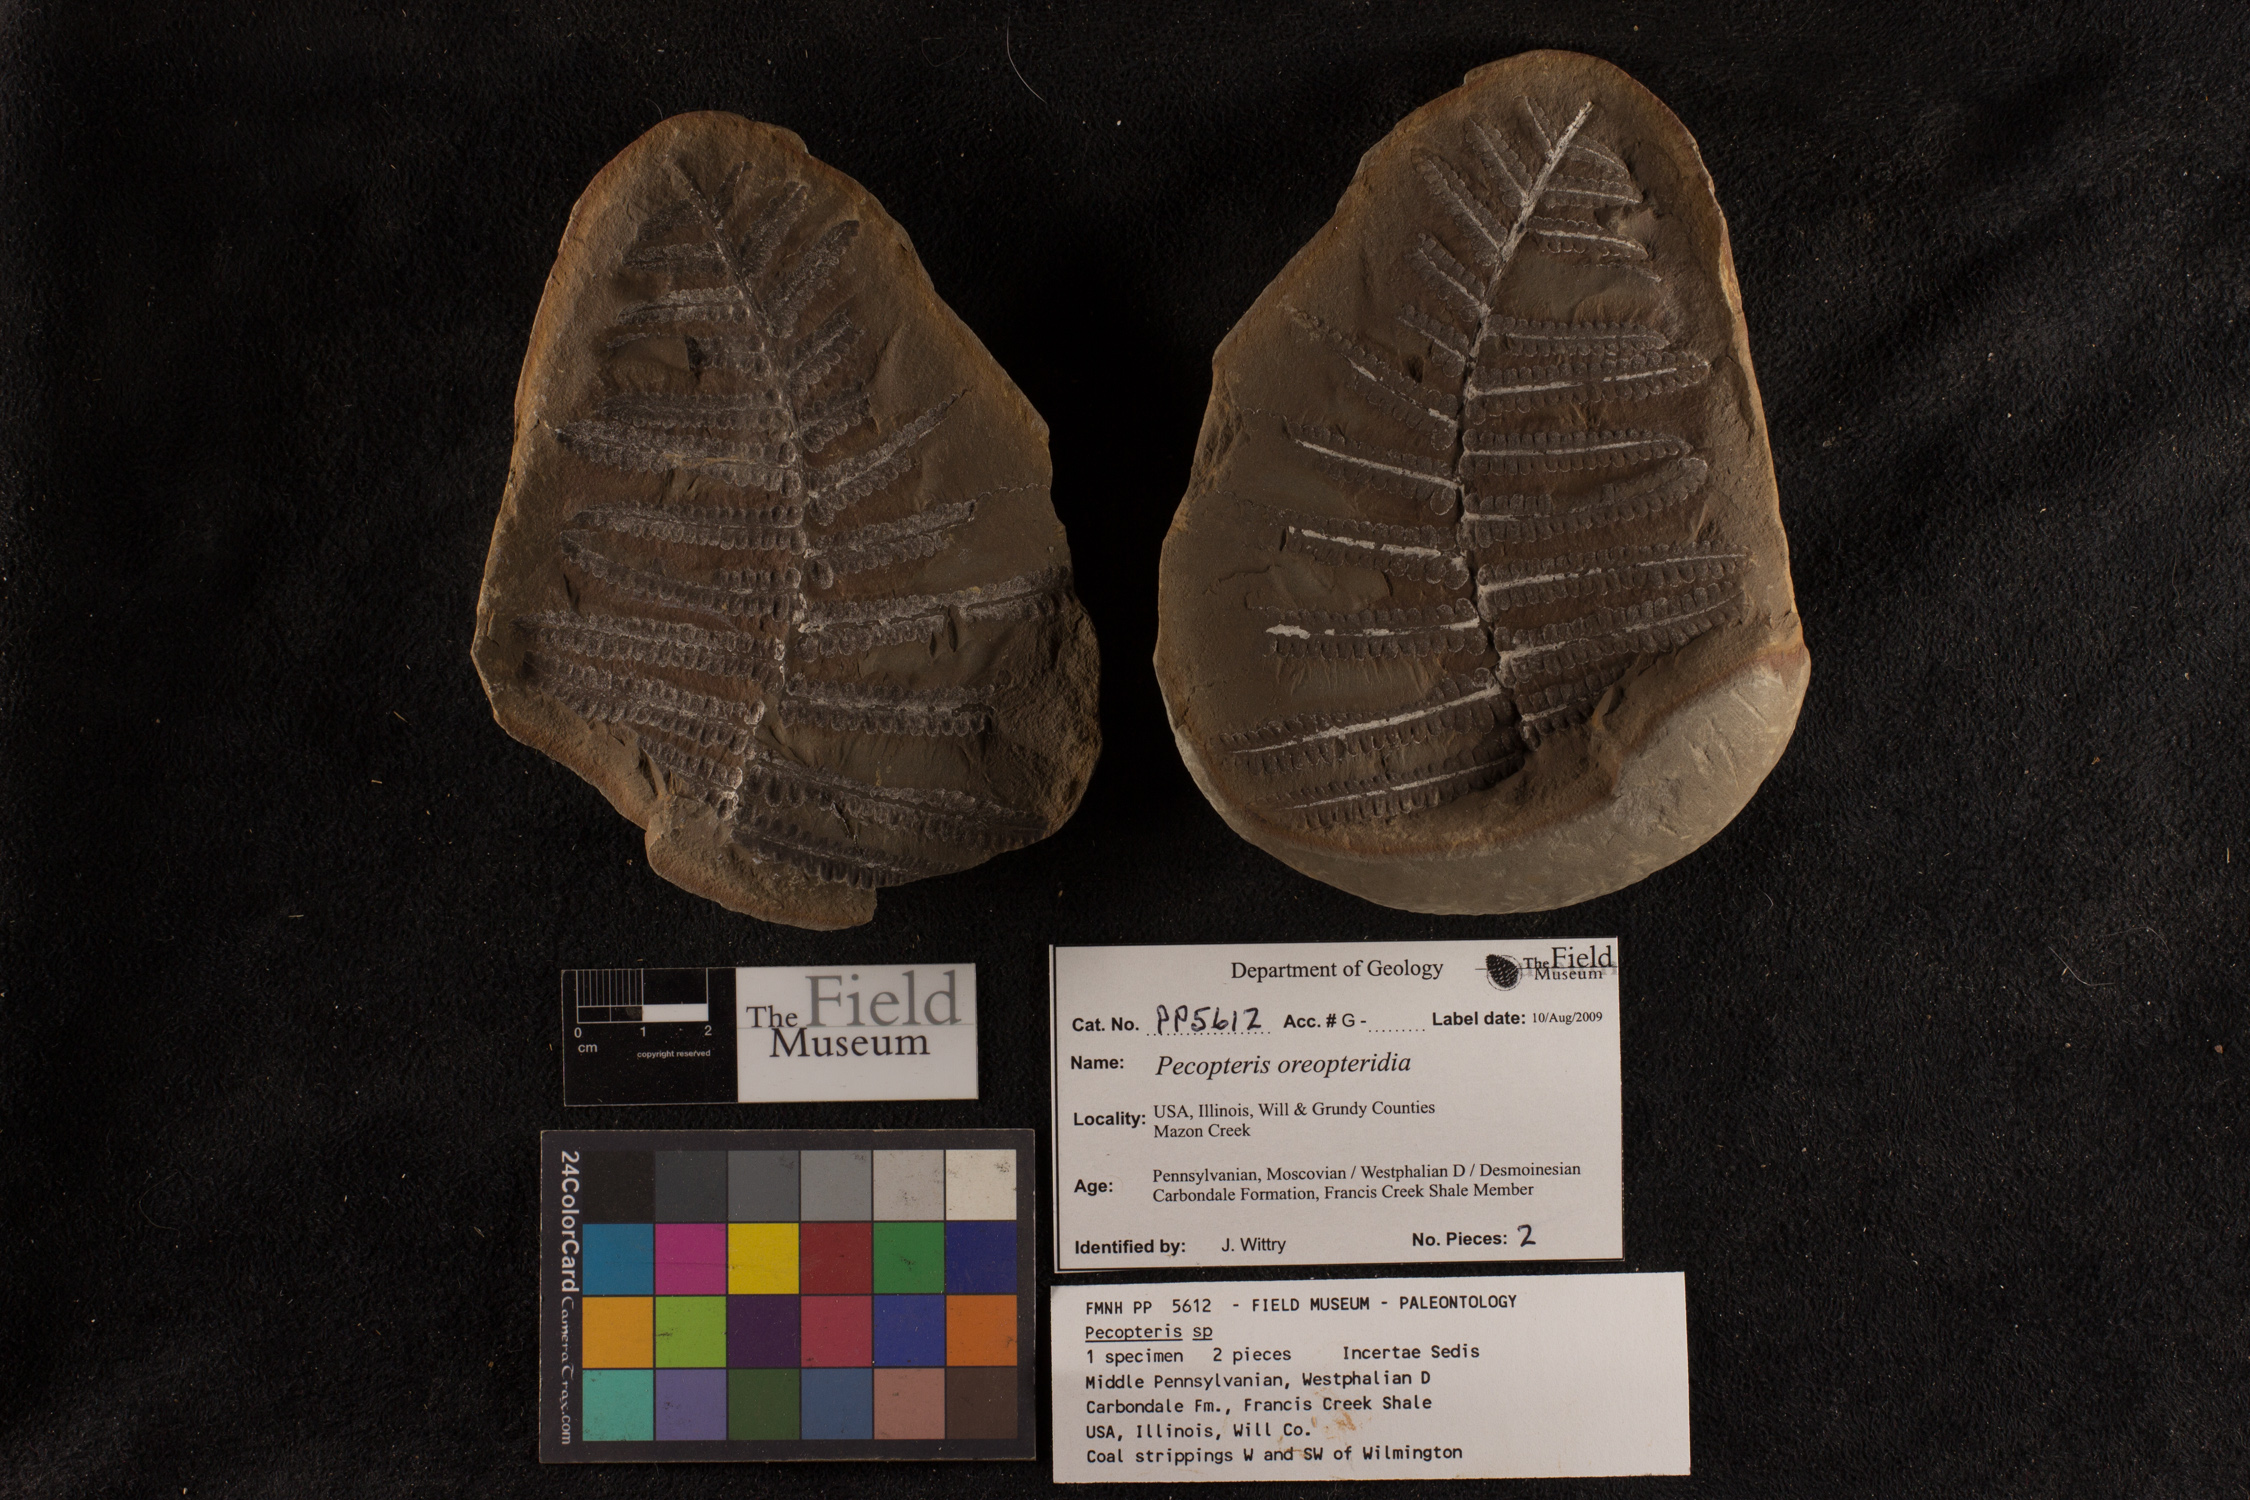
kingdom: Plantae
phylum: Tracheophyta
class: Polypodiopsida
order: Marattiales
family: Asterothecaceae
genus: Pecopteris
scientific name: Pecopteris
